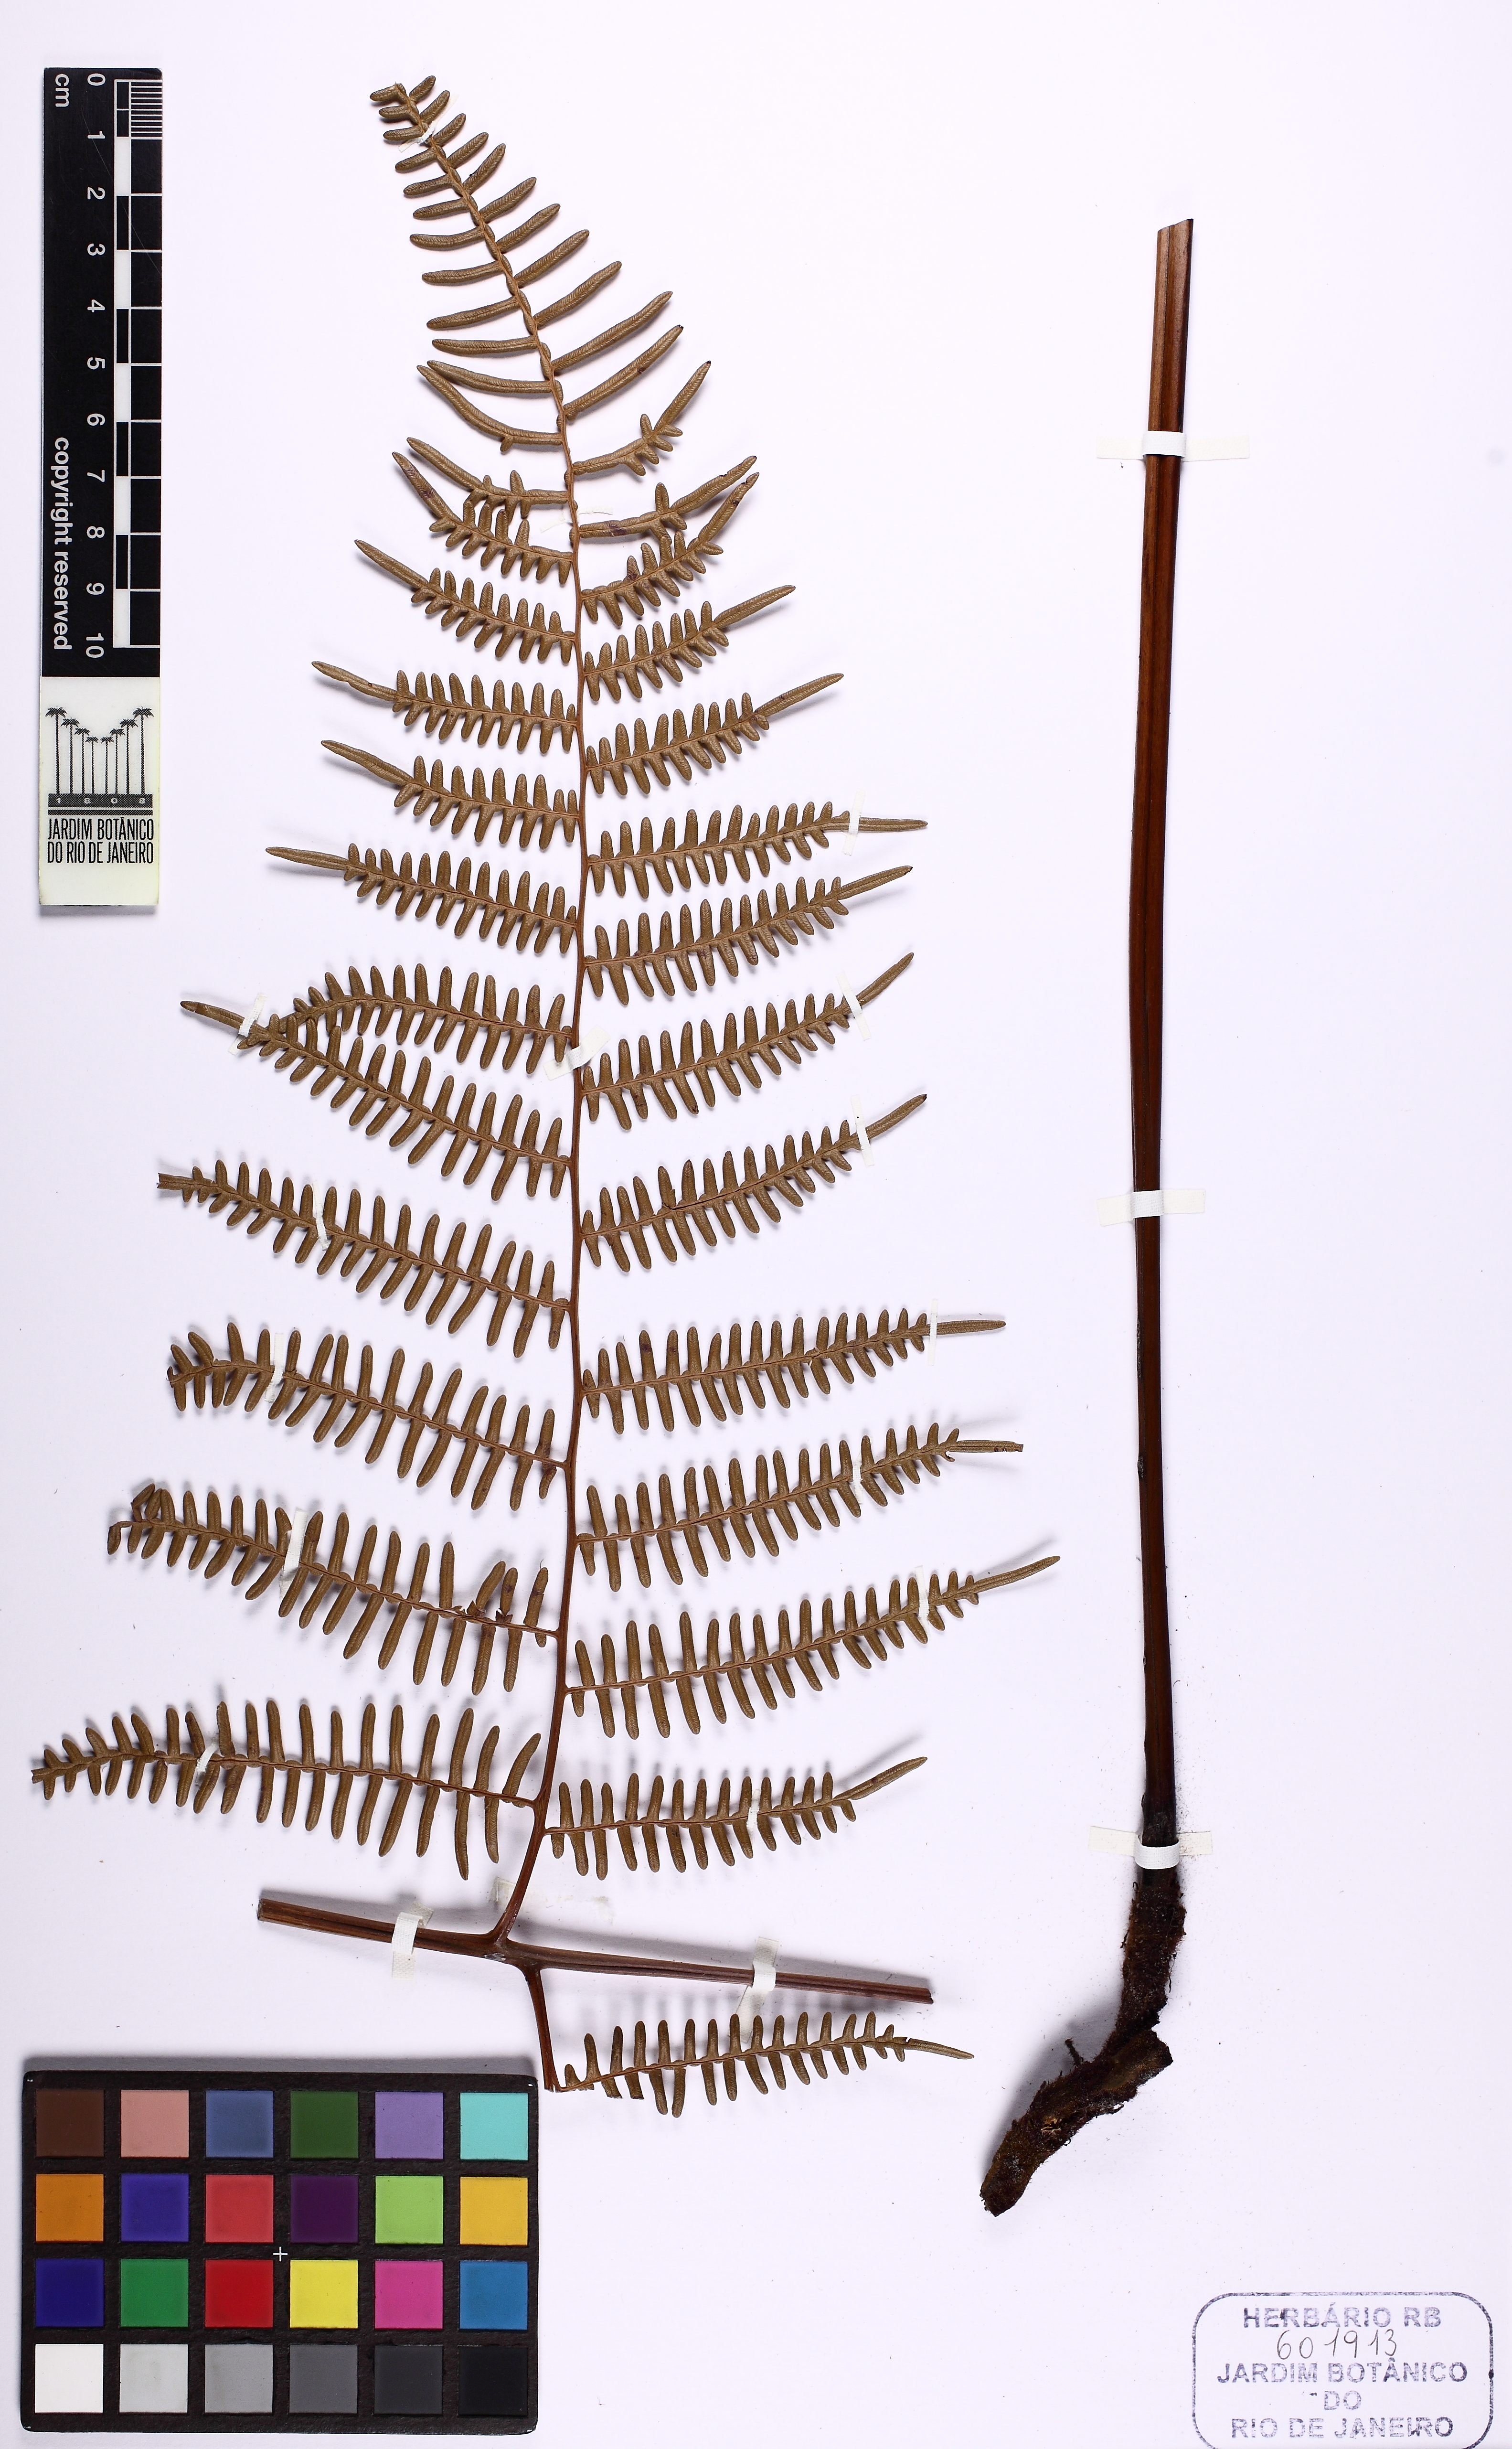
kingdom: Plantae
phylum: Tracheophyta
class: Polypodiopsida
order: Polypodiales
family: Dennstaedtiaceae
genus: Pteridium
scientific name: Pteridium esculentum
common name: Bracken fern
